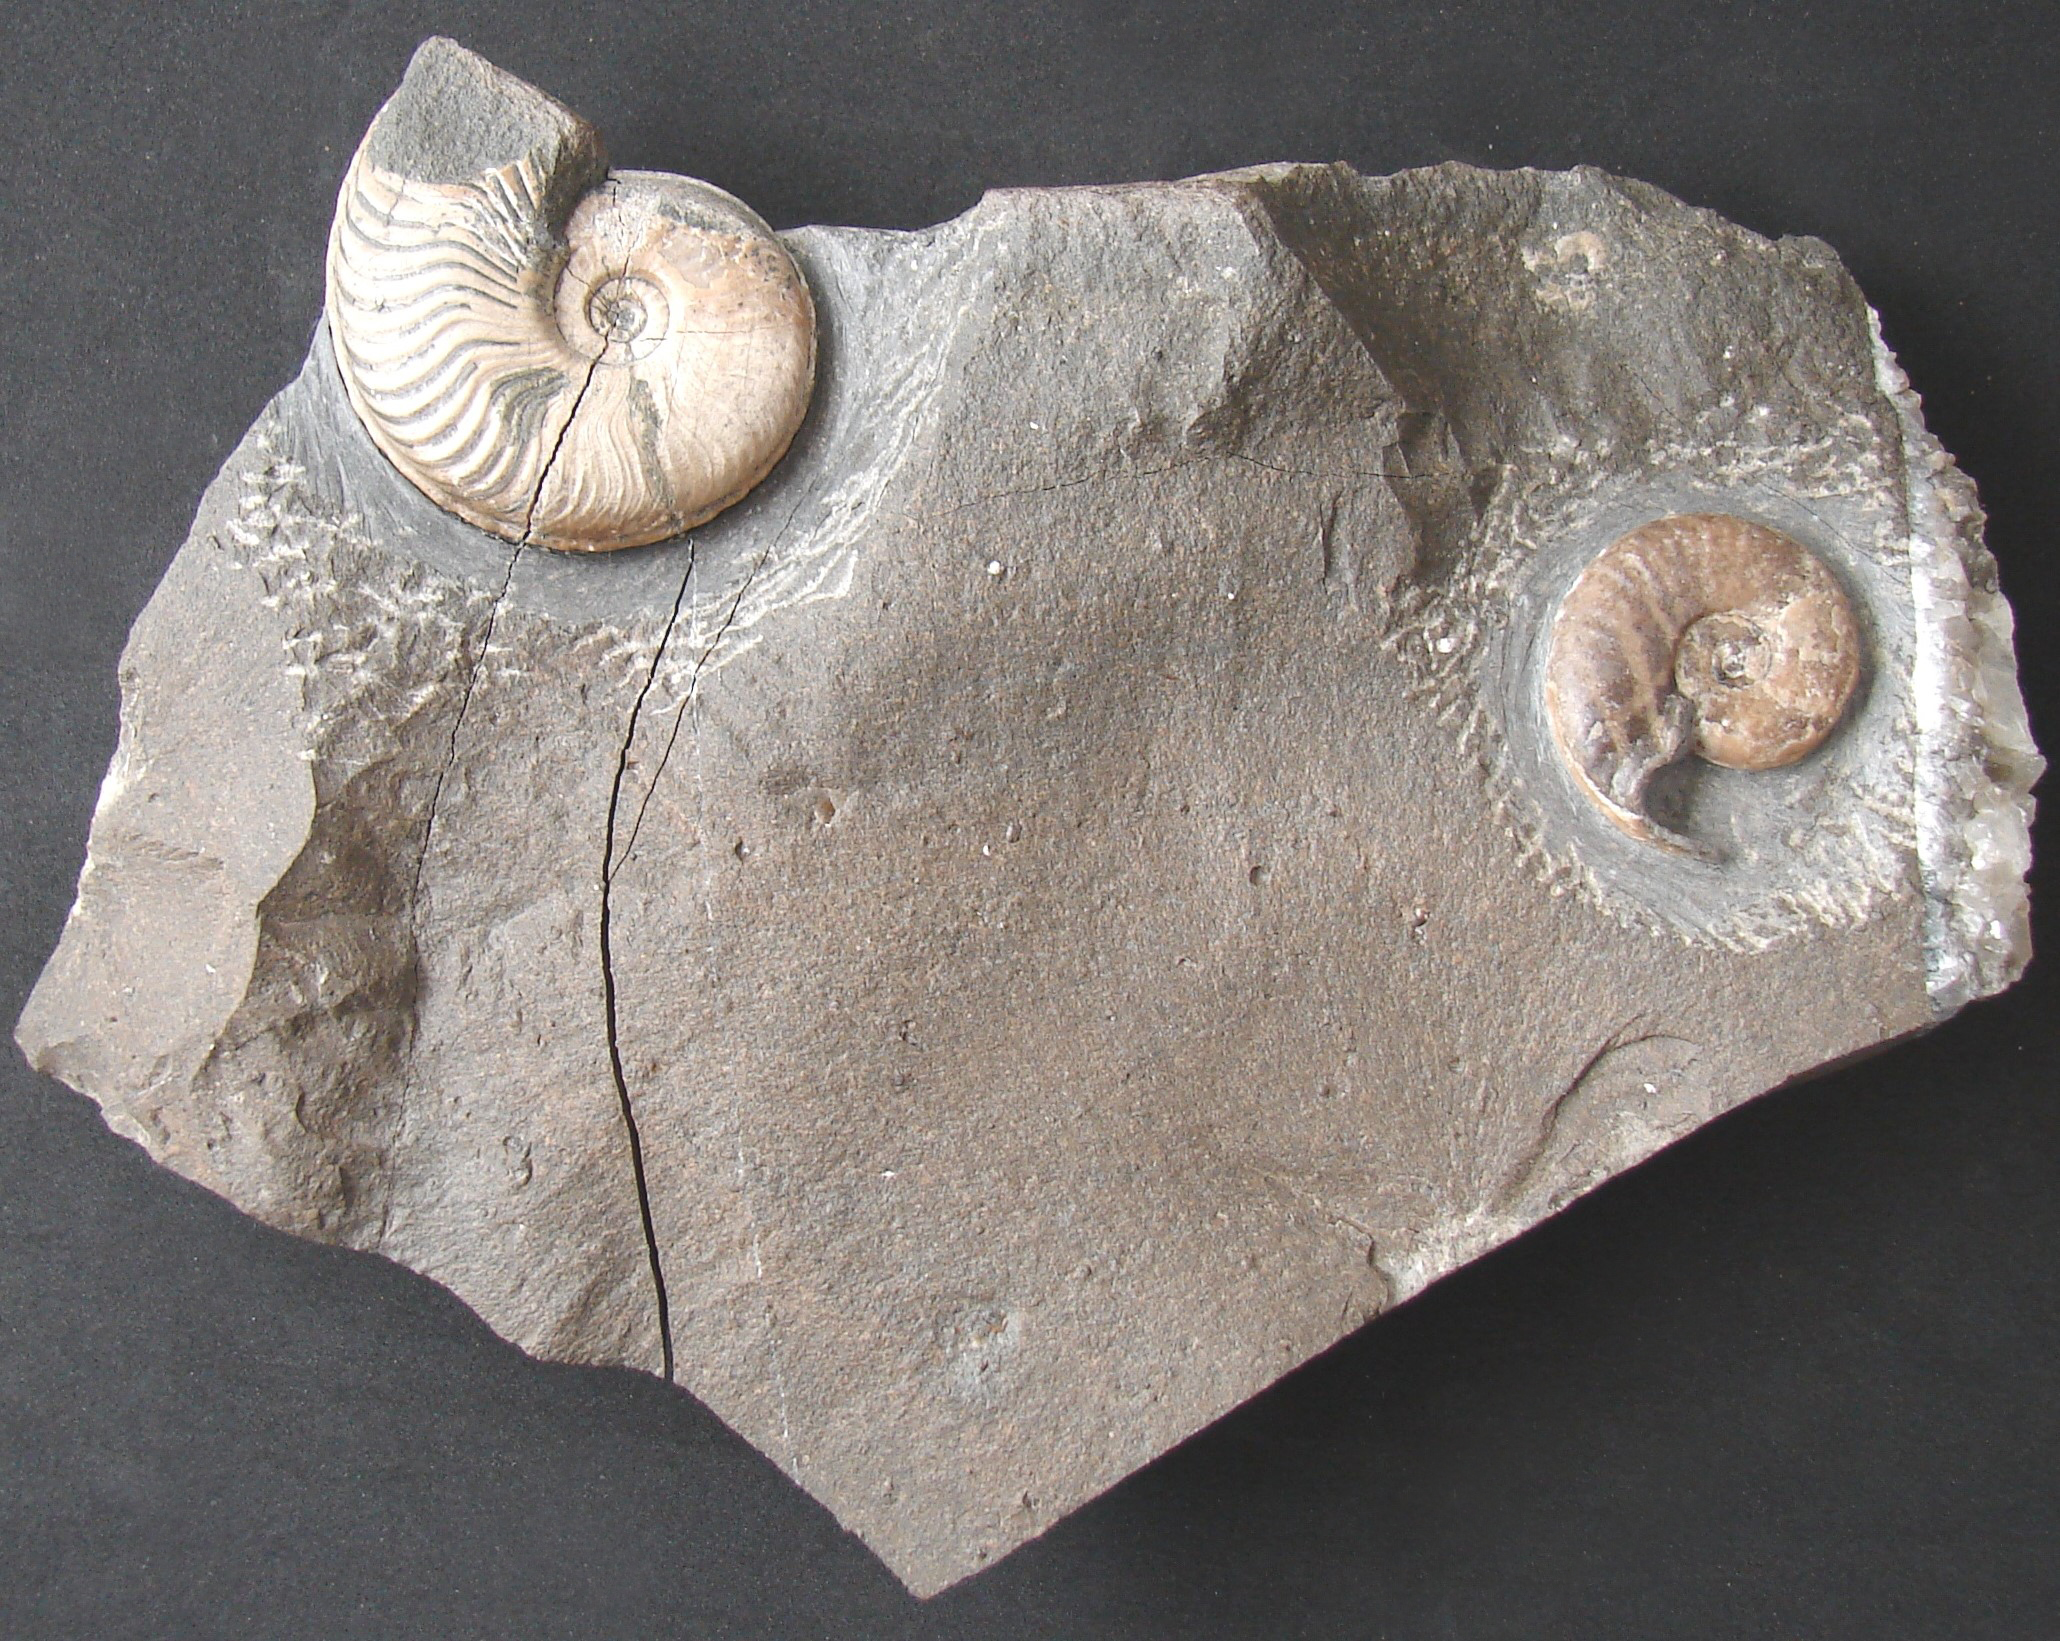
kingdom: Animalia
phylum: Mollusca
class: Cephalopoda
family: Hildoceratidae
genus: Eleganticeras
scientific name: Eleganticeras exaratum
